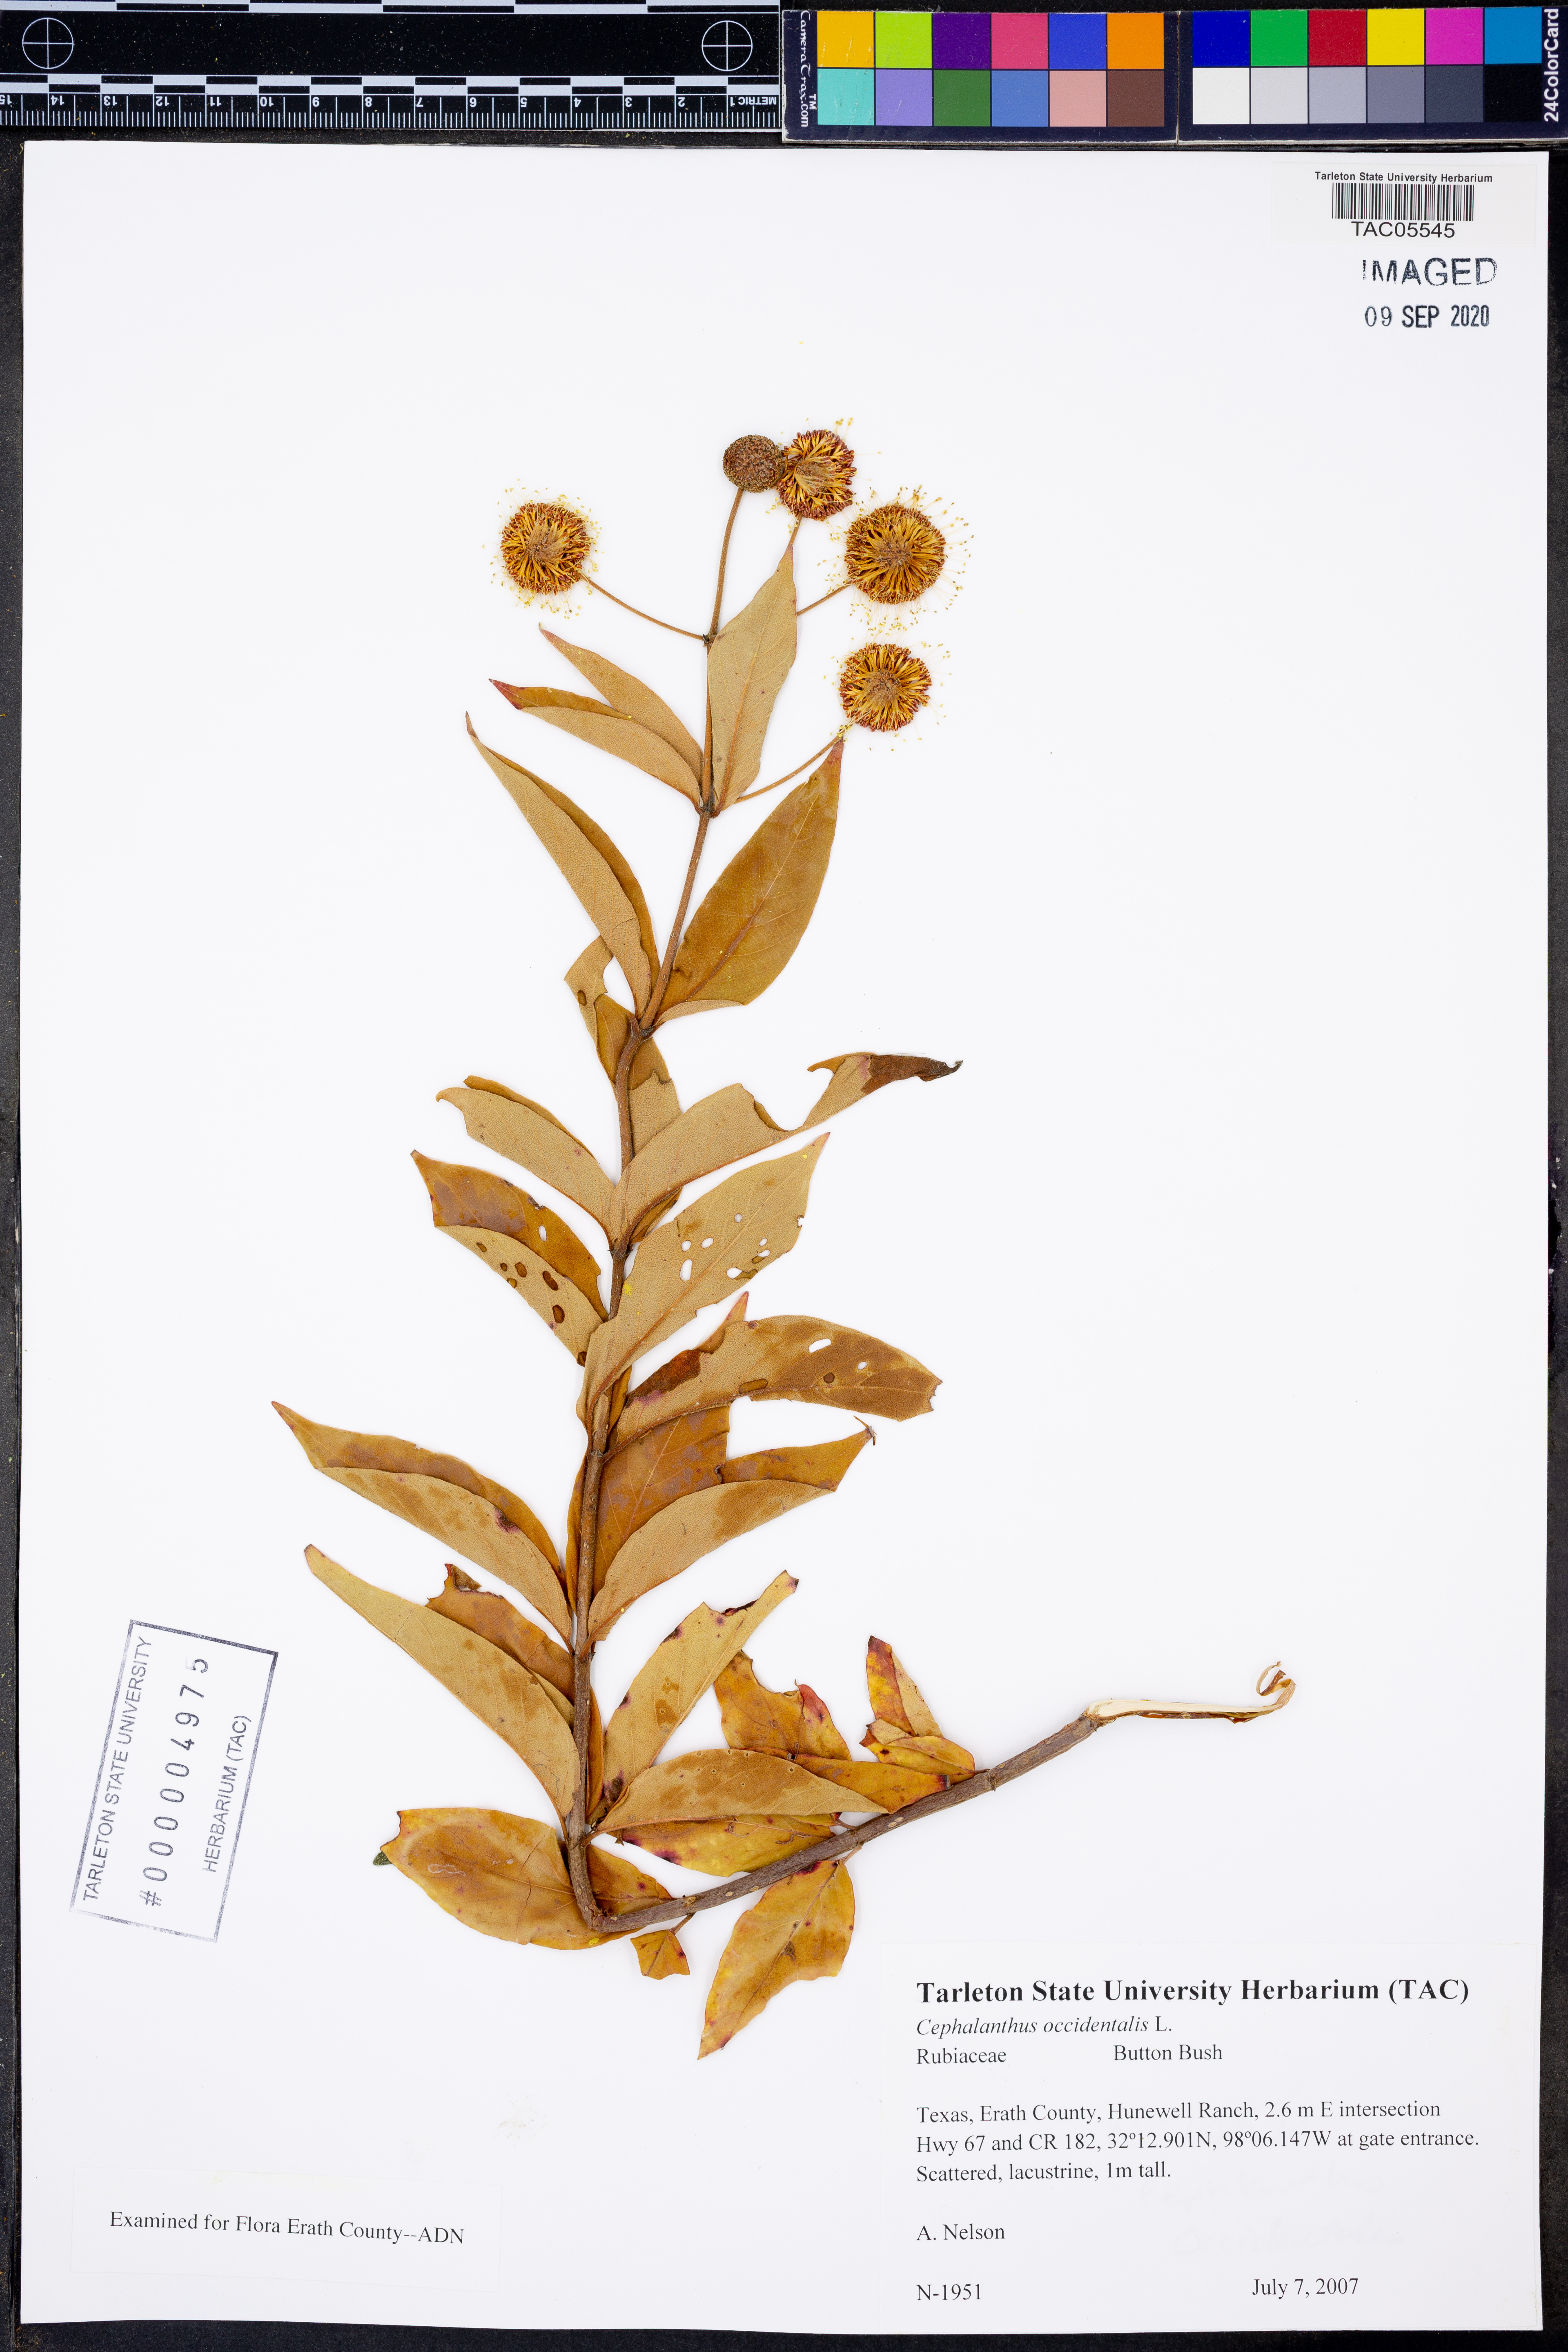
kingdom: Plantae
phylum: Tracheophyta
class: Magnoliopsida
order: Gentianales
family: Rubiaceae
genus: Cephalanthus
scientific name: Cephalanthus occidentalis
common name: Button-willow
